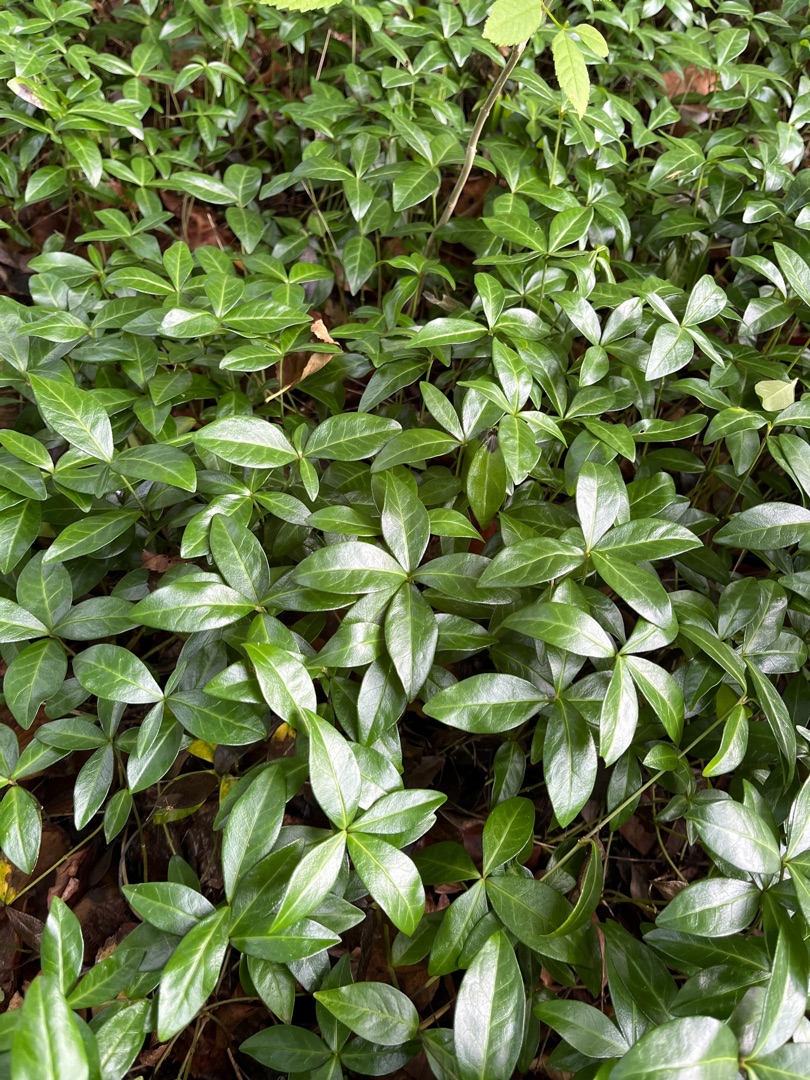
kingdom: Plantae
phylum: Tracheophyta
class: Magnoliopsida
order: Gentianales
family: Apocynaceae
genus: Vinca
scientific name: Vinca minor
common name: Liden singrøn
